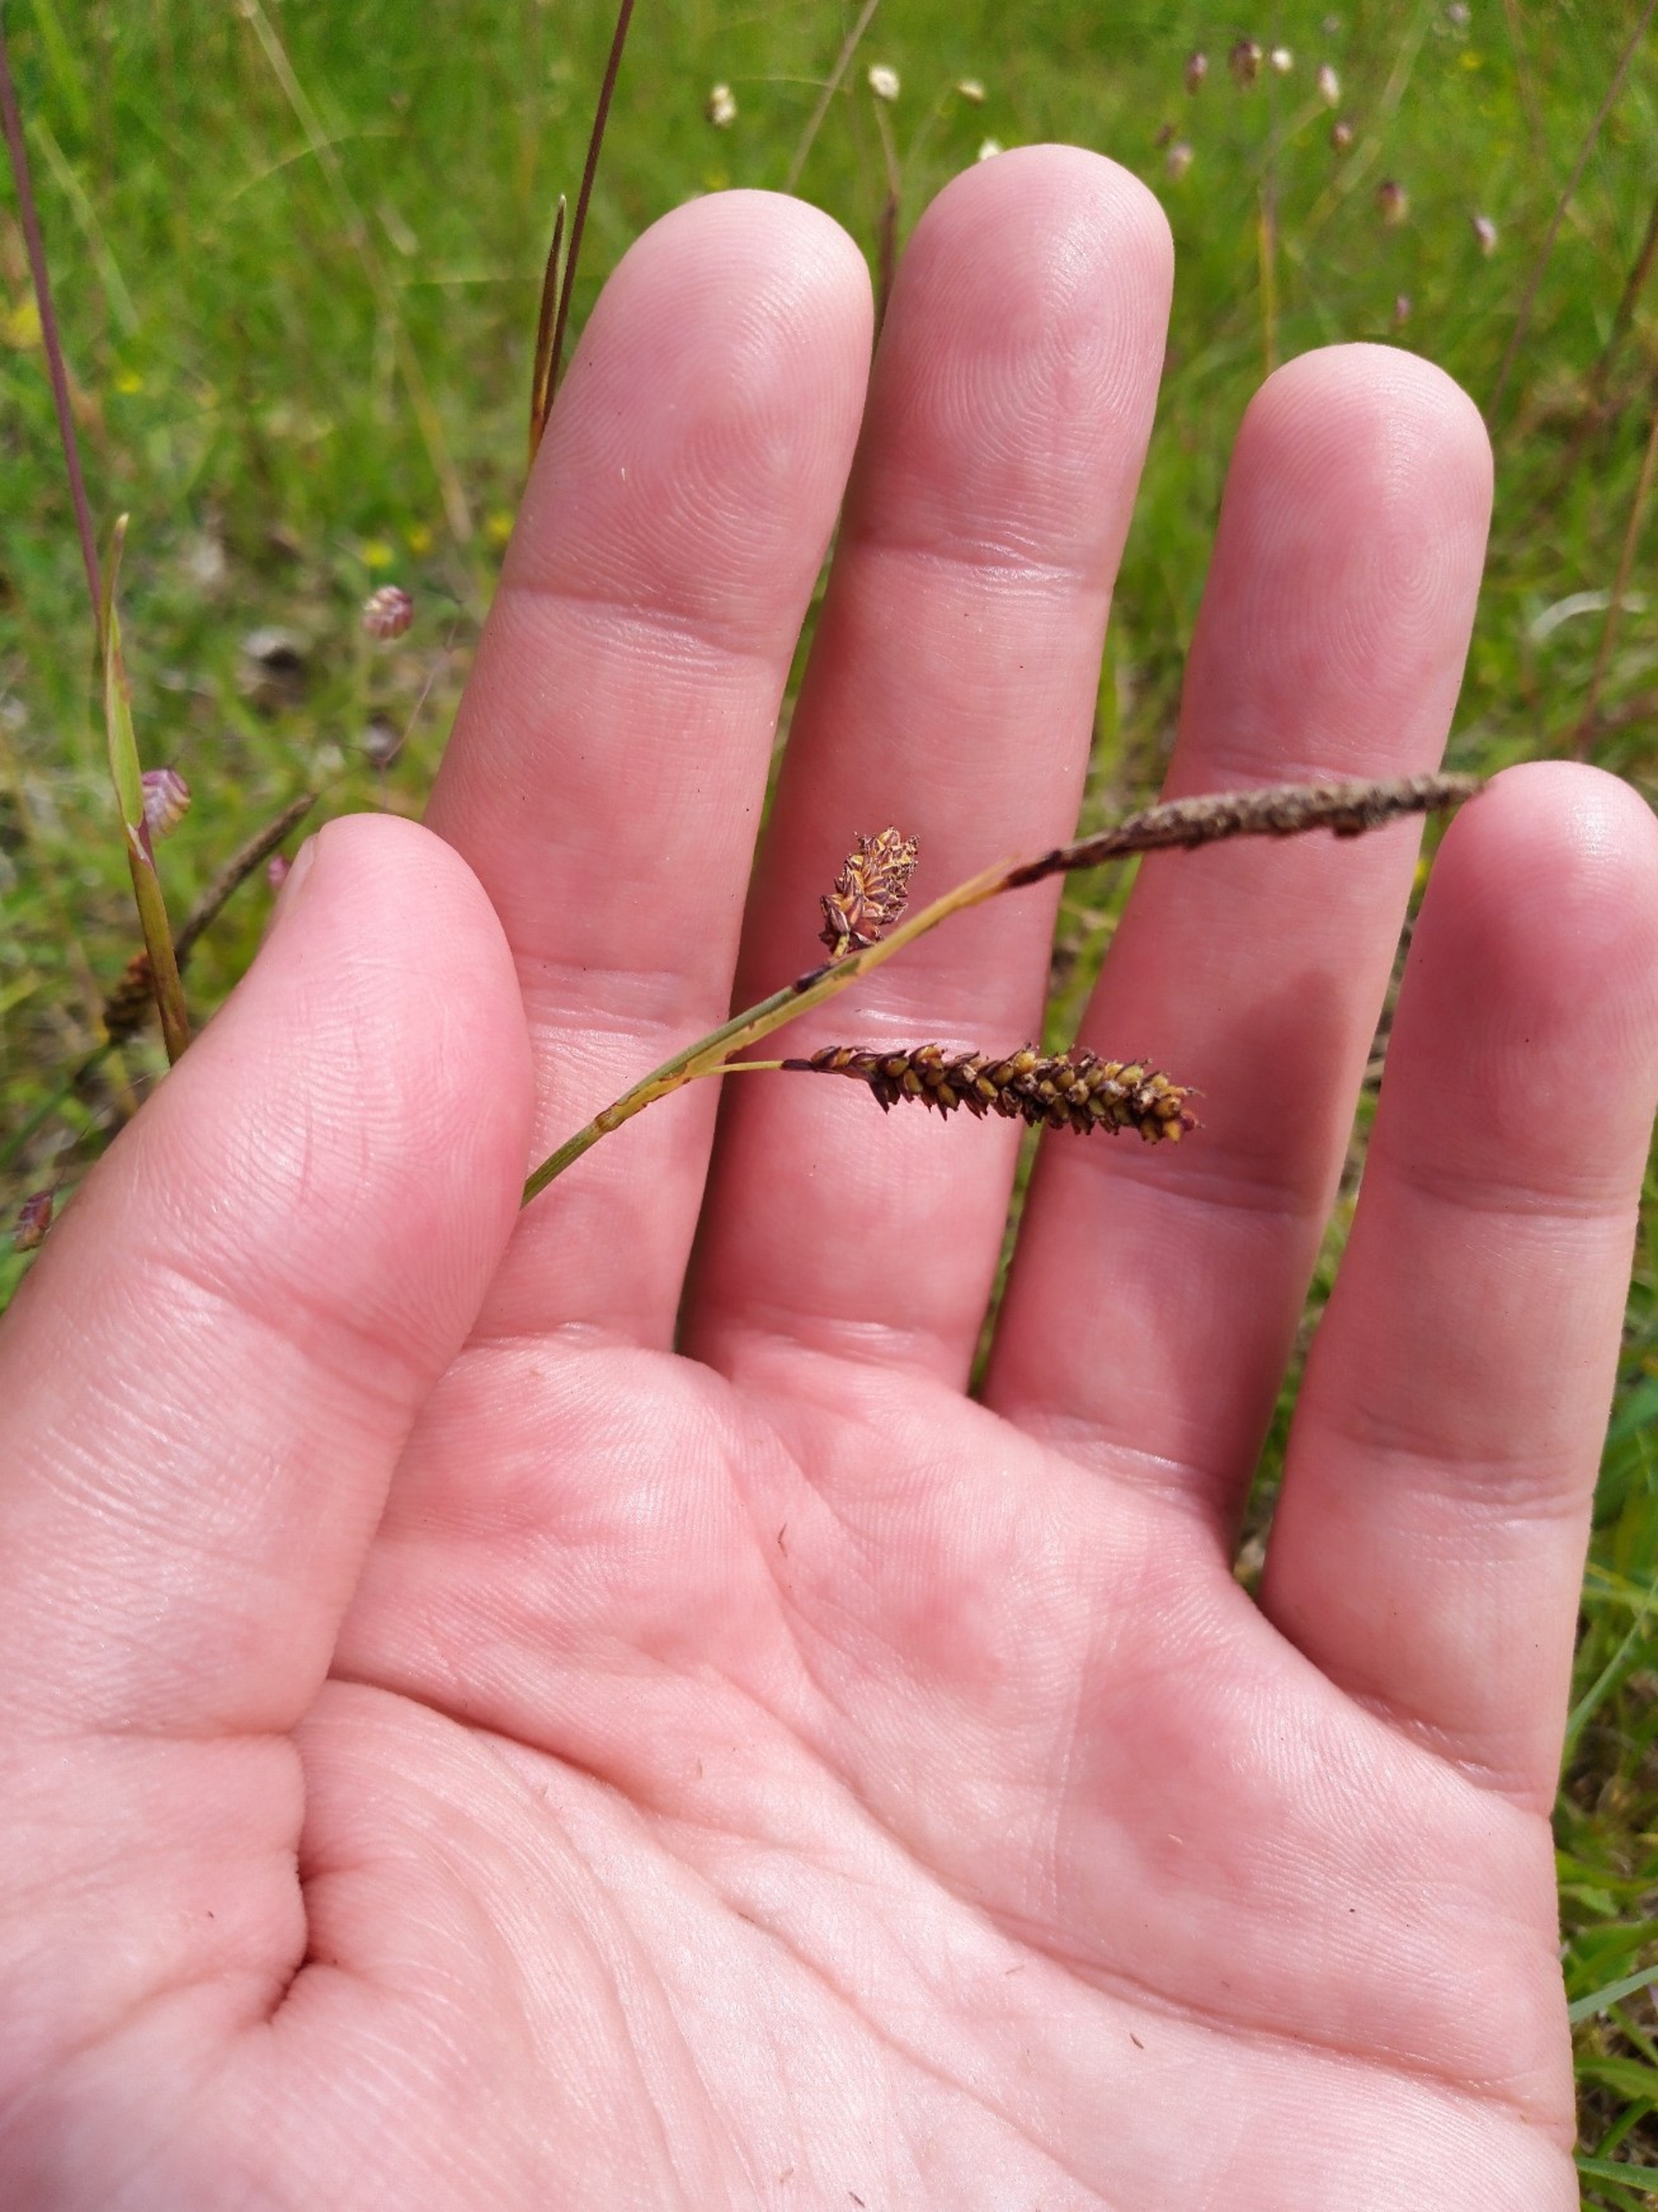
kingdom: Plantae
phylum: Tracheophyta
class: Liliopsida
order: Poales
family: Cyperaceae
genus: Carex
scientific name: Carex flacca
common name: Blågrøn star
